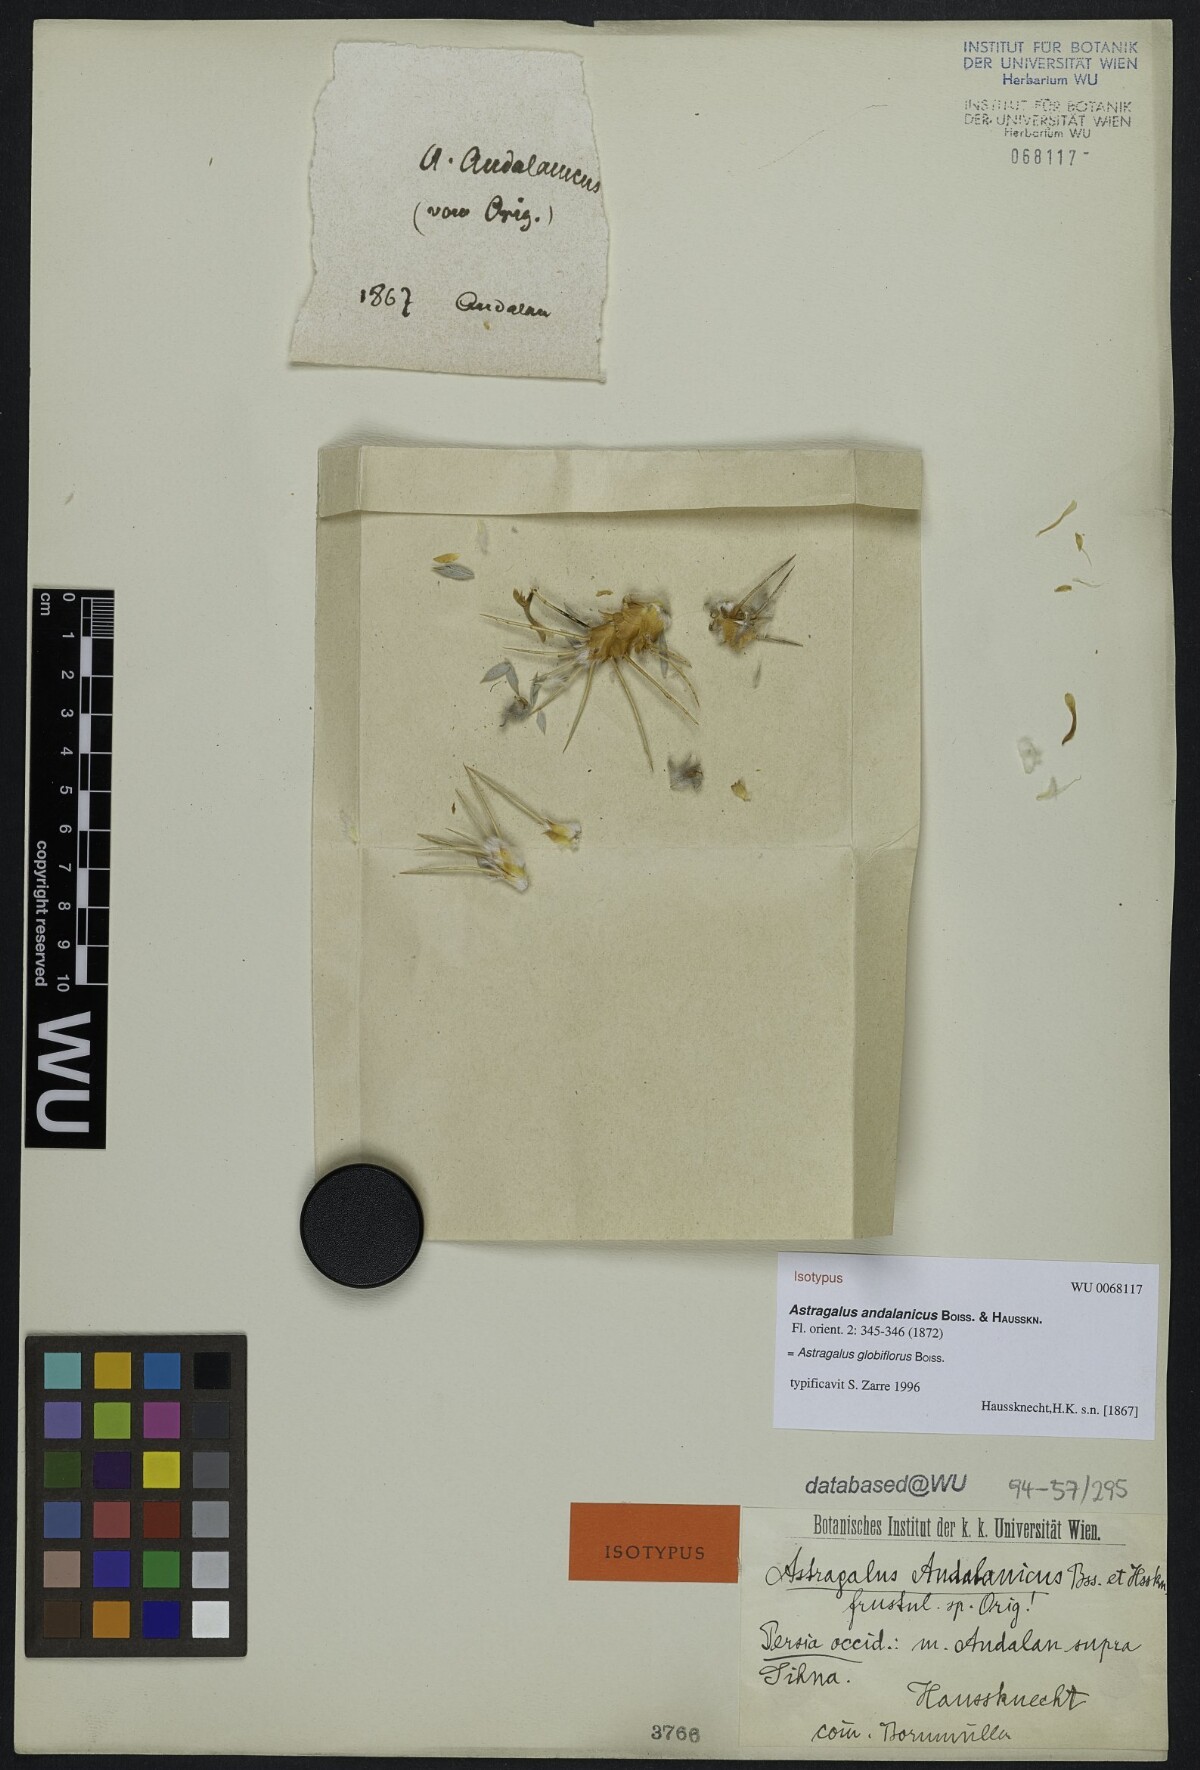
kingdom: Plantae
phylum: Tracheophyta
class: Magnoliopsida
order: Fabales
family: Fabaceae
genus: Astragalus
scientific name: Astragalus andalanicus
